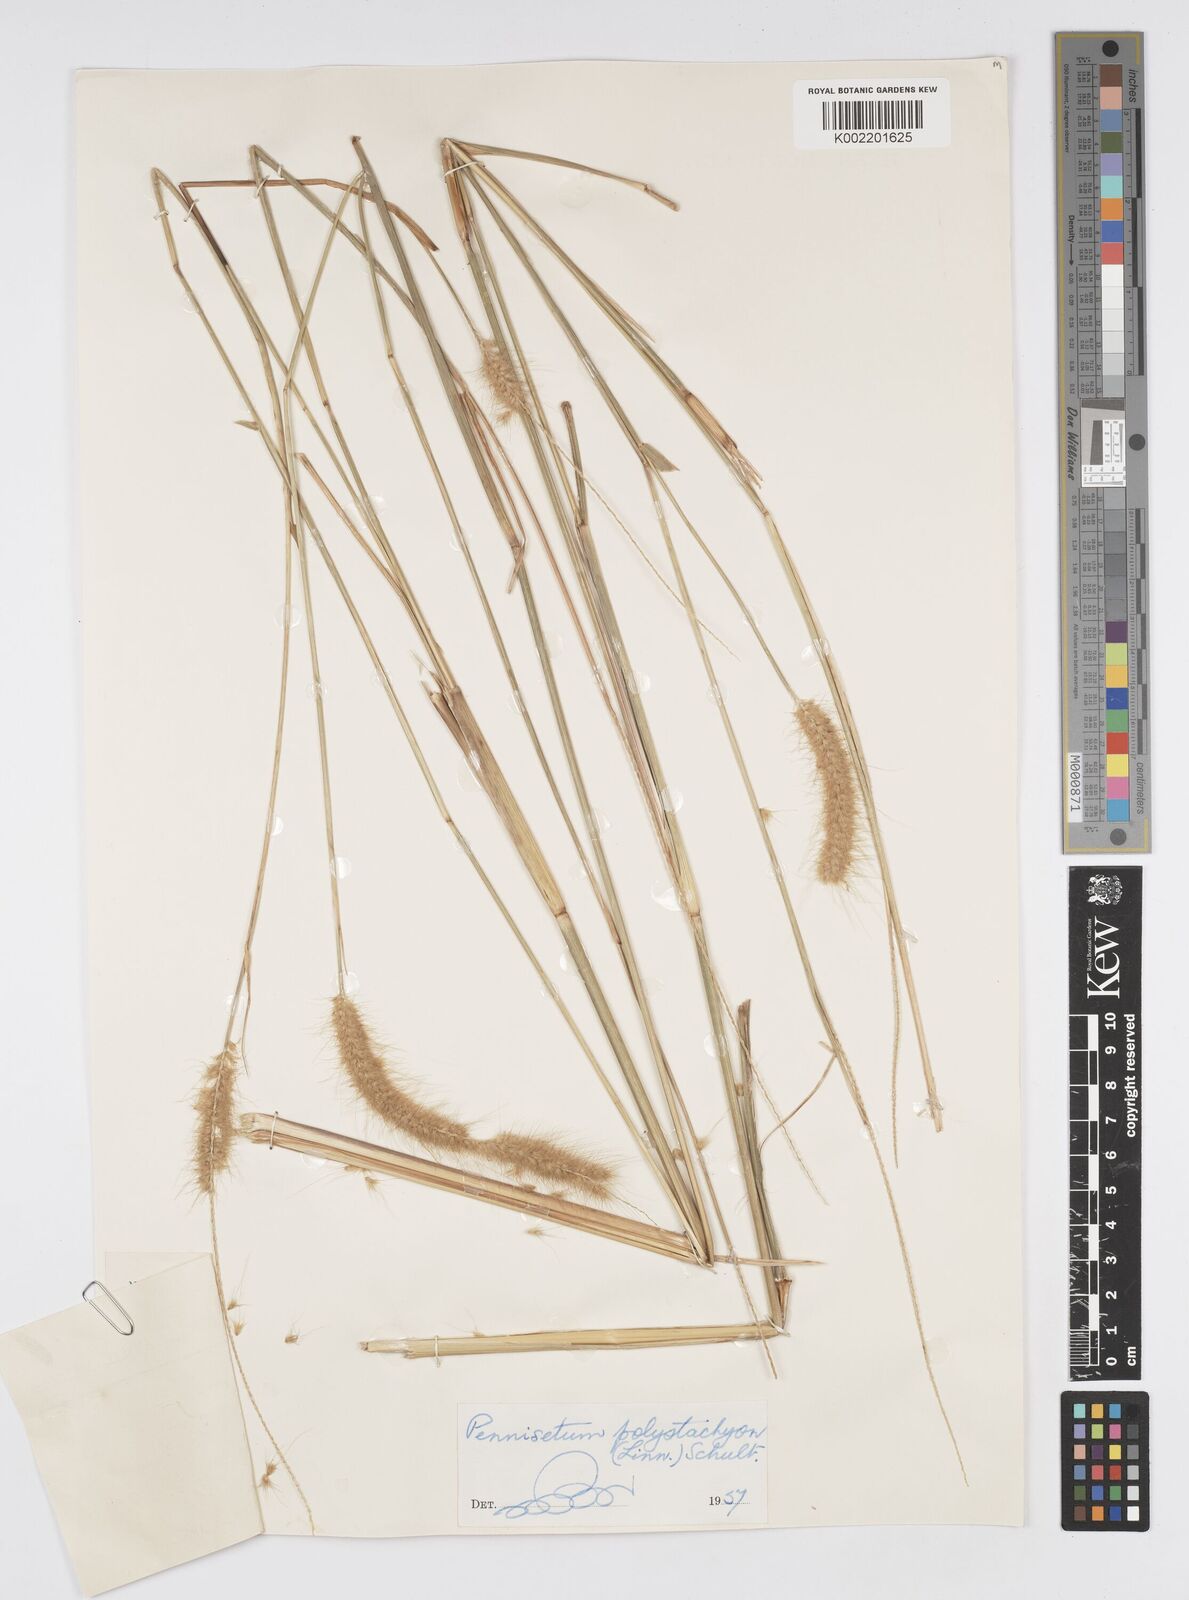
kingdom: Plantae
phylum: Tracheophyta
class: Liliopsida
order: Poales
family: Poaceae
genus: Setaria
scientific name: Setaria parviflora
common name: Knotroot bristle-grass
